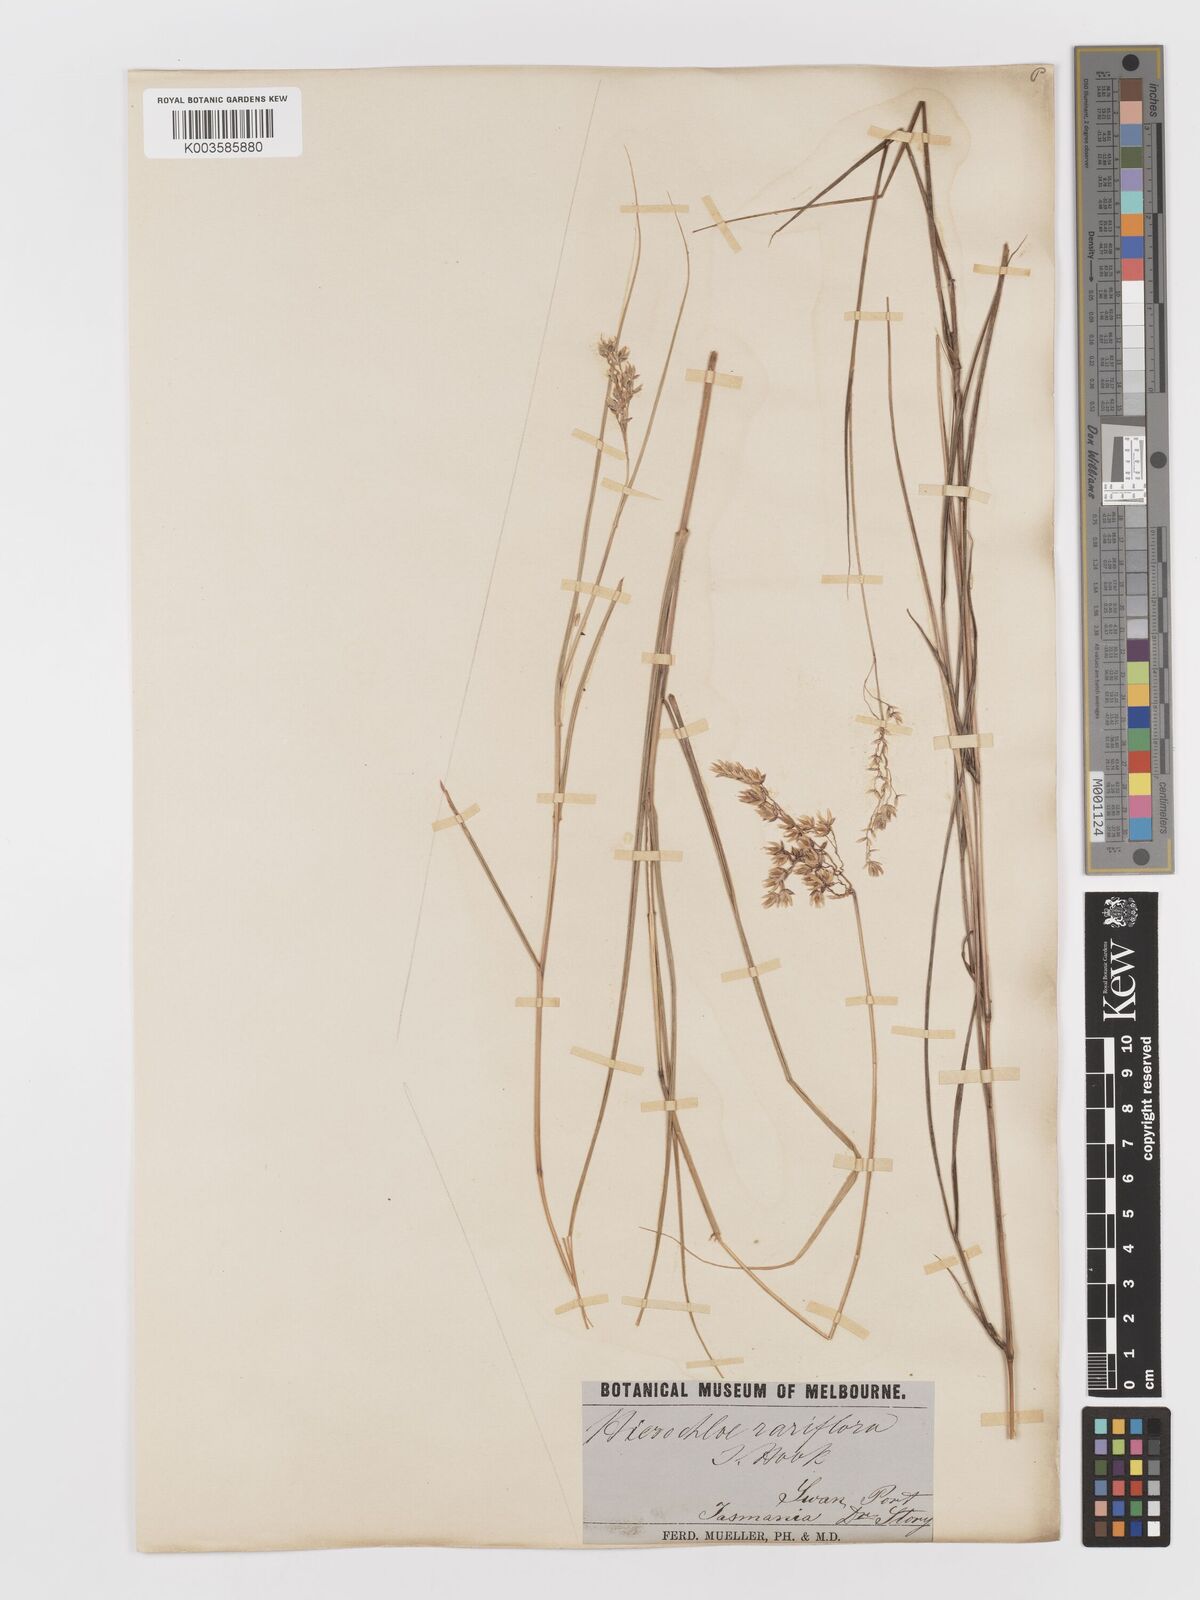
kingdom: Plantae
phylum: Tracheophyta
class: Liliopsida
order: Poales
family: Poaceae
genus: Anthoxanthum
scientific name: Anthoxanthum rariflorum
